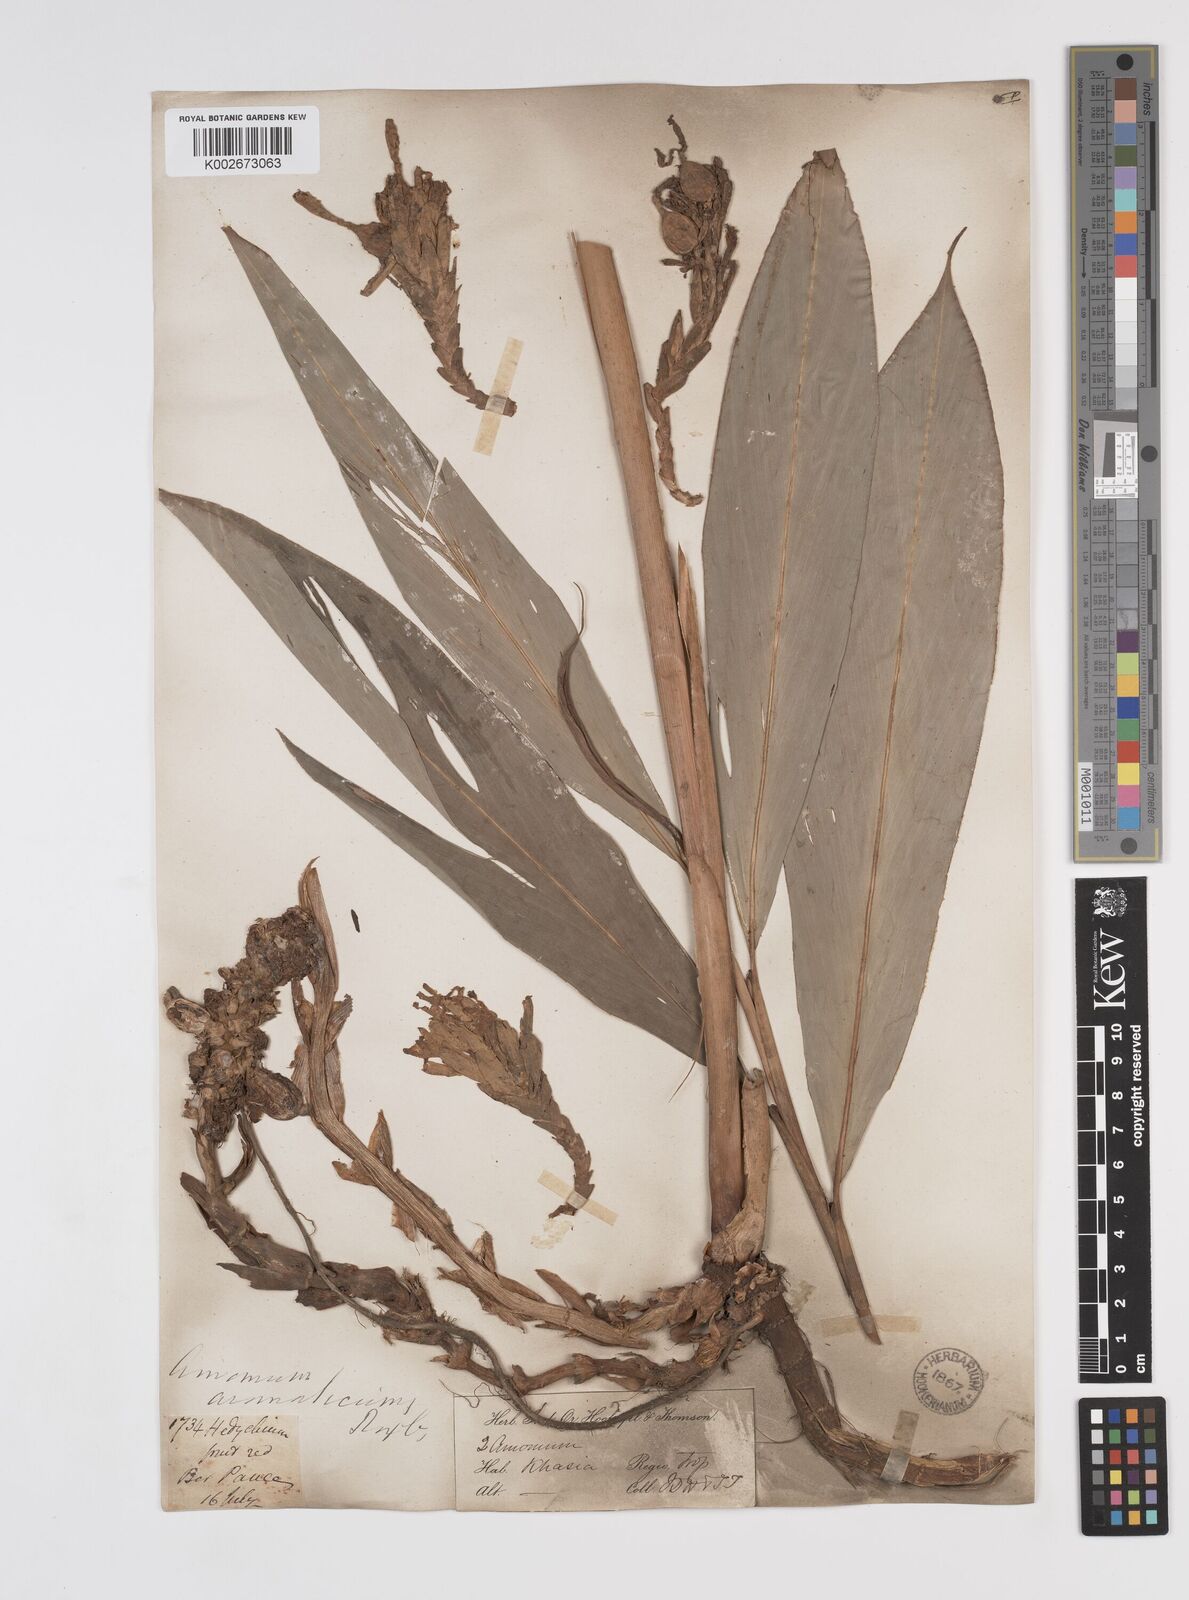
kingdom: Plantae
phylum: Tracheophyta
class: Liliopsida
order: Zingiberales
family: Zingiberaceae
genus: Wurfbainia
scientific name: Wurfbainia aromatica
